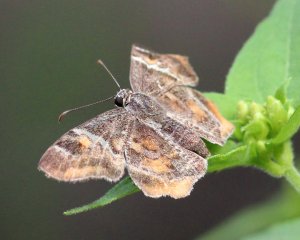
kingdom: Animalia
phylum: Arthropoda
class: Insecta
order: Lepidoptera
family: Hesperiidae
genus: Systasea
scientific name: Systasea pulverulenta
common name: Texas Powdered-Skipper
